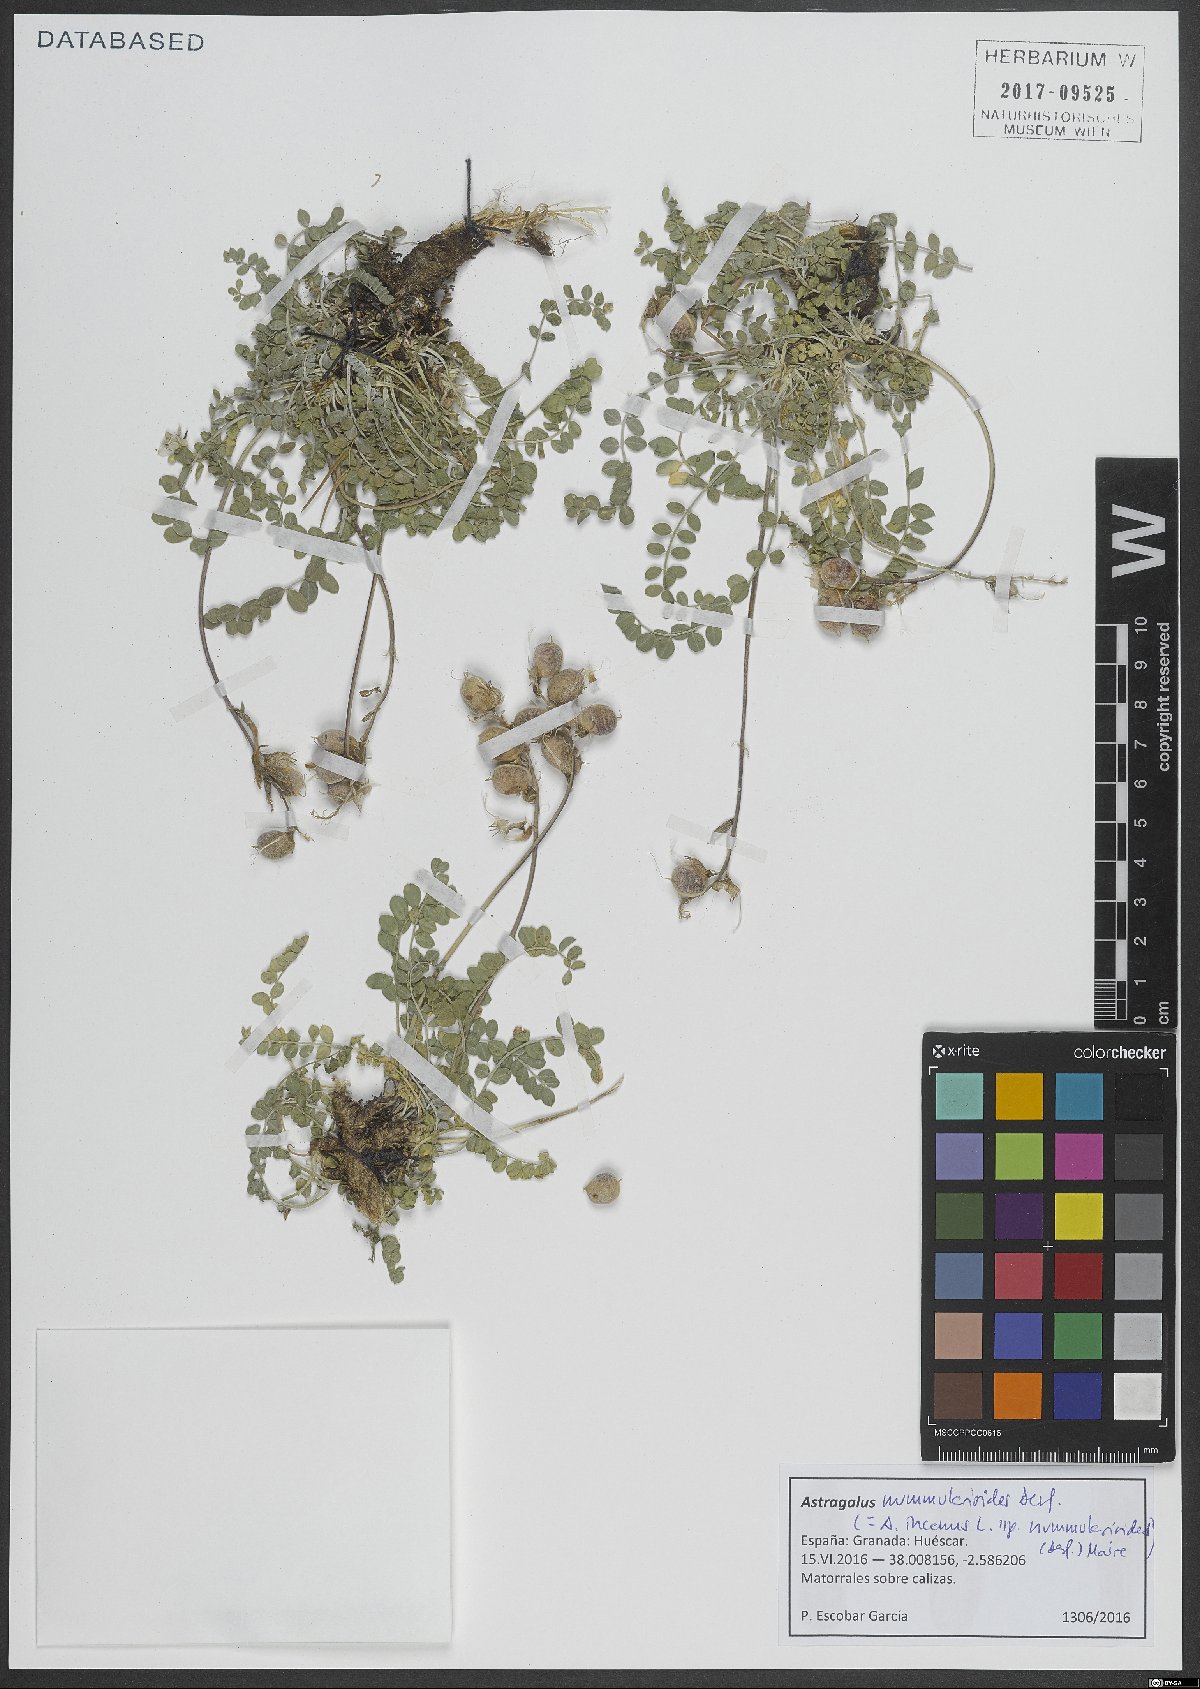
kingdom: Plantae
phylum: Tracheophyta
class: Magnoliopsida
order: Fabales
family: Fabaceae
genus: Astragalus
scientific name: Astragalus incanus
